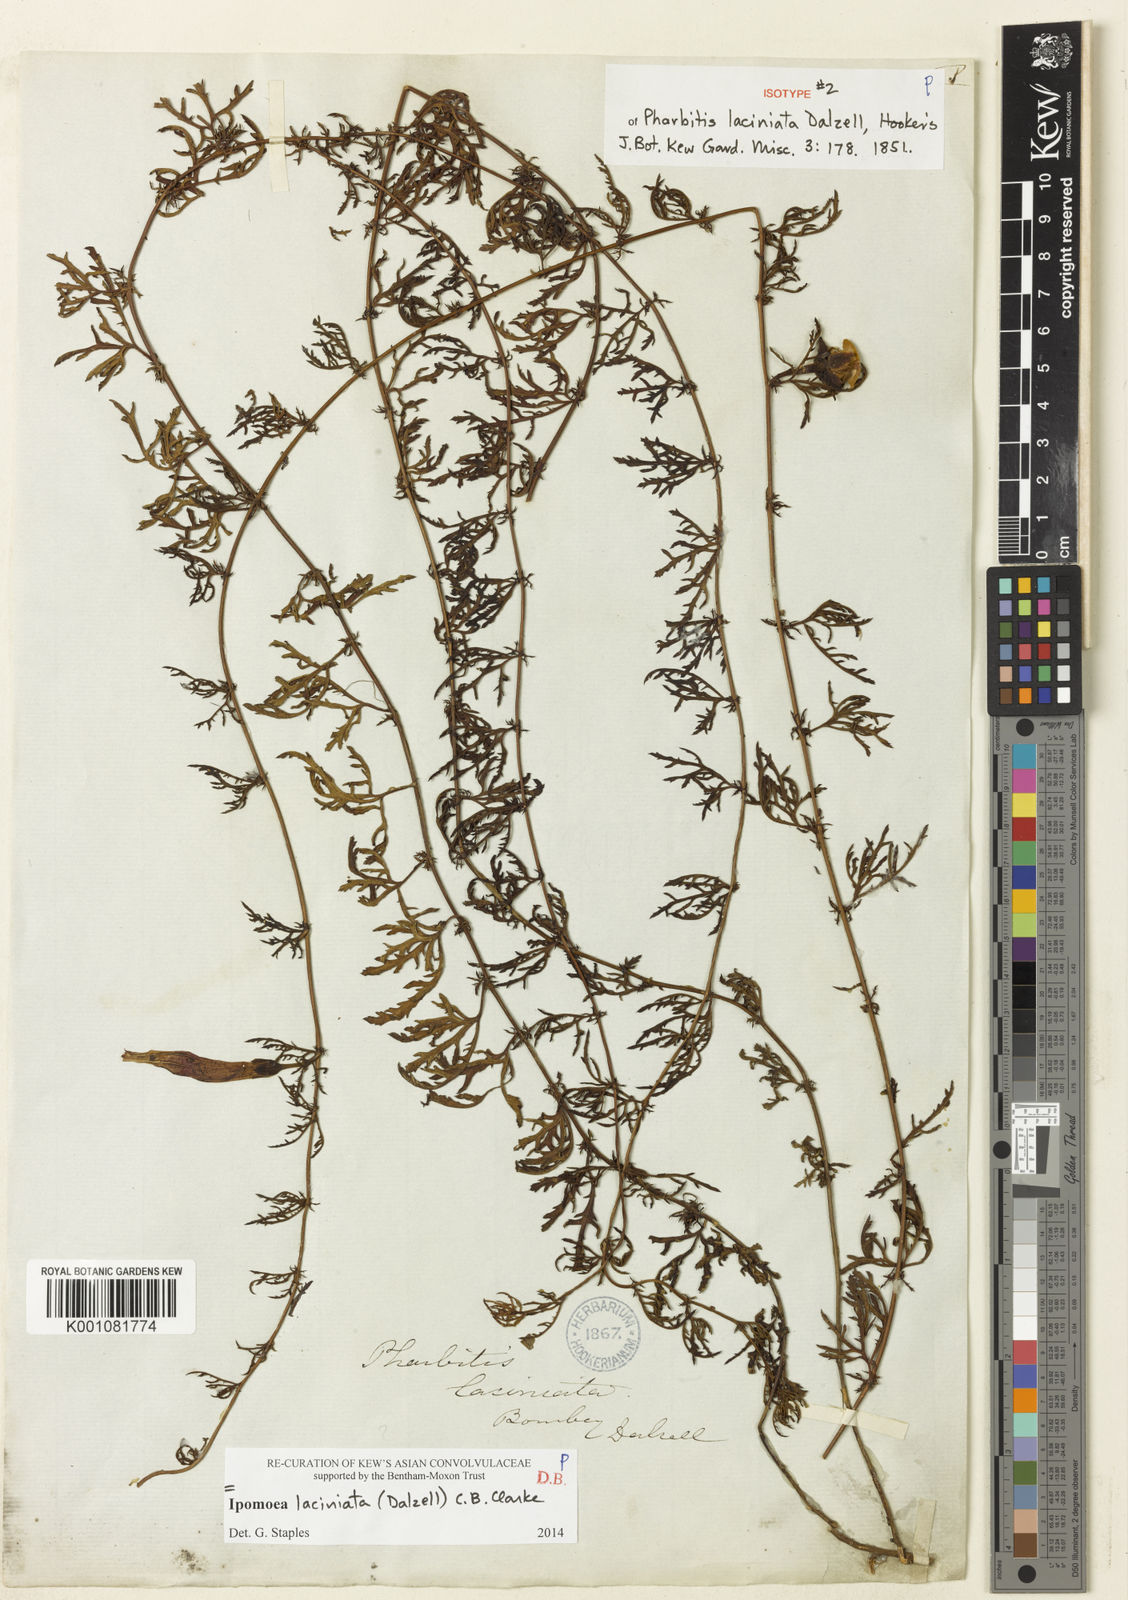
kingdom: Plantae
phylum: Tracheophyta
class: Magnoliopsida
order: Solanales
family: Convolvulaceae
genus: Ipomoea
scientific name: Ipomoea diversifolia
